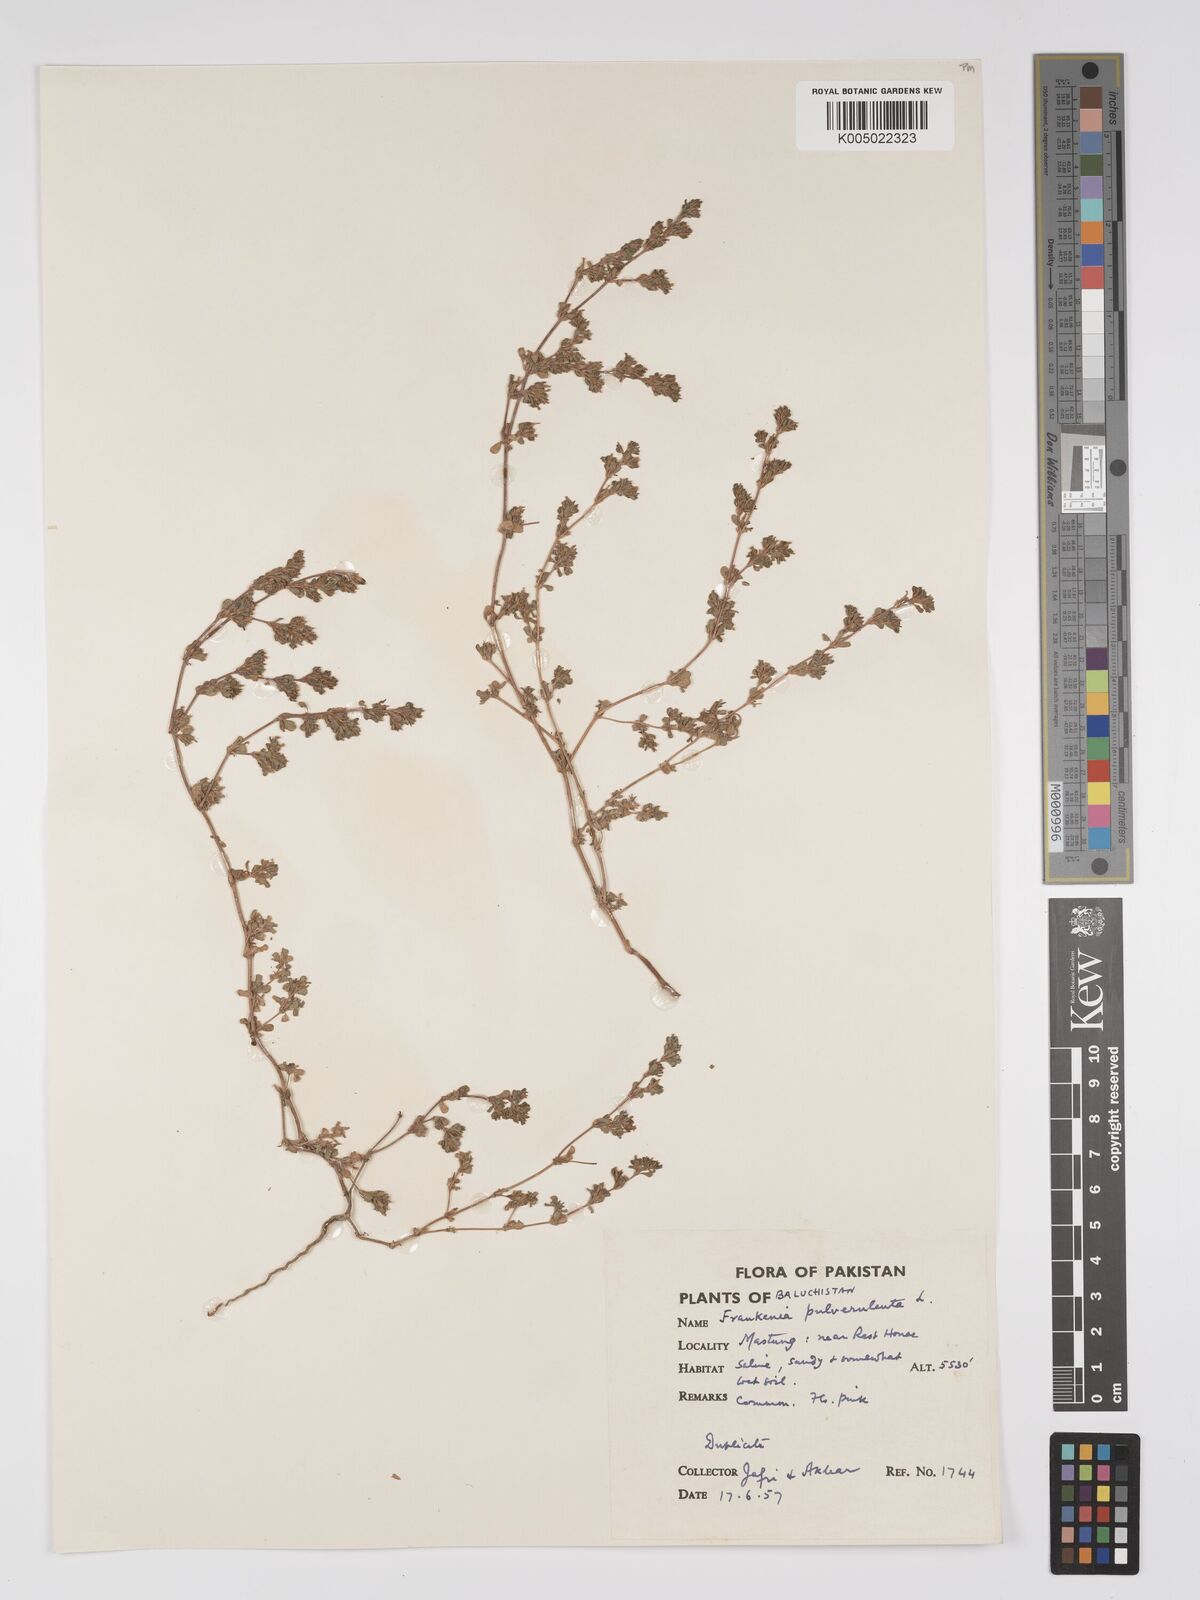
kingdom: Plantae
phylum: Tracheophyta
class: Magnoliopsida
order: Caryophyllales
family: Frankeniaceae
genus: Frankenia
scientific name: Frankenia pulverulenta
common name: European seaheath
